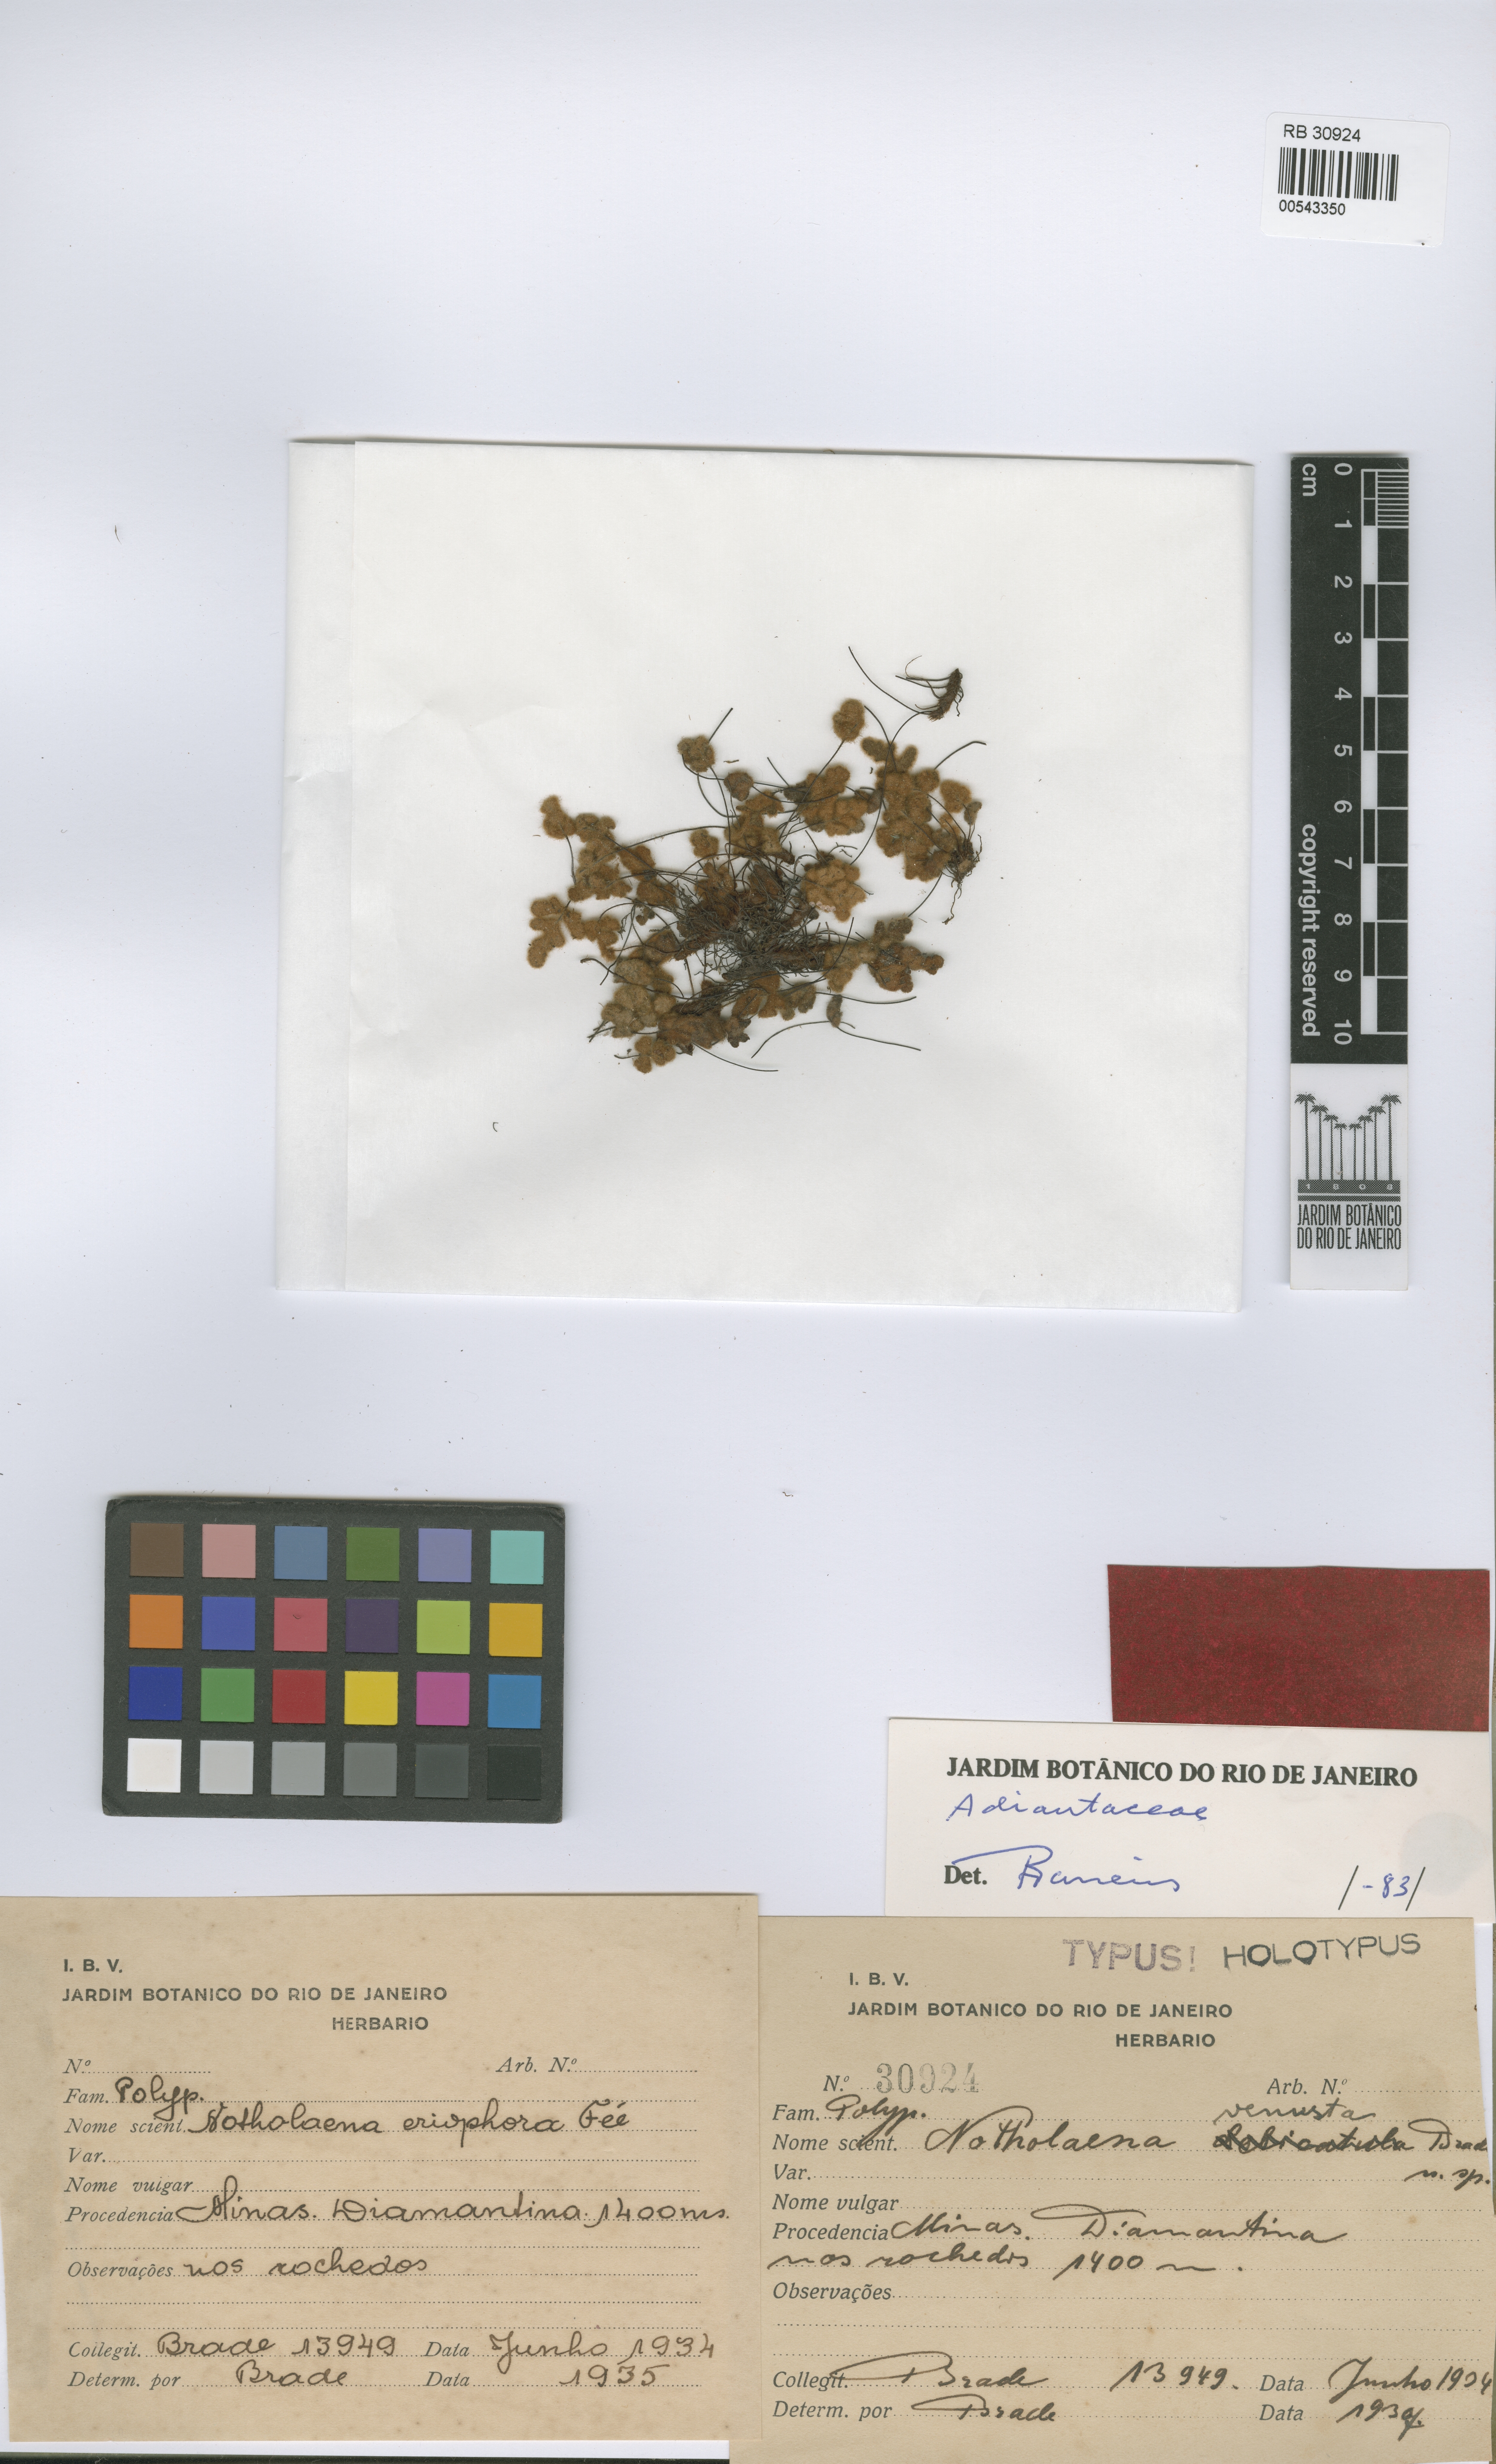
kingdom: Plantae
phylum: Tracheophyta
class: Polypodiopsida
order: Polypodiales
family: Pteridaceae
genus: Mineirella
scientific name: Mineirella venusta
